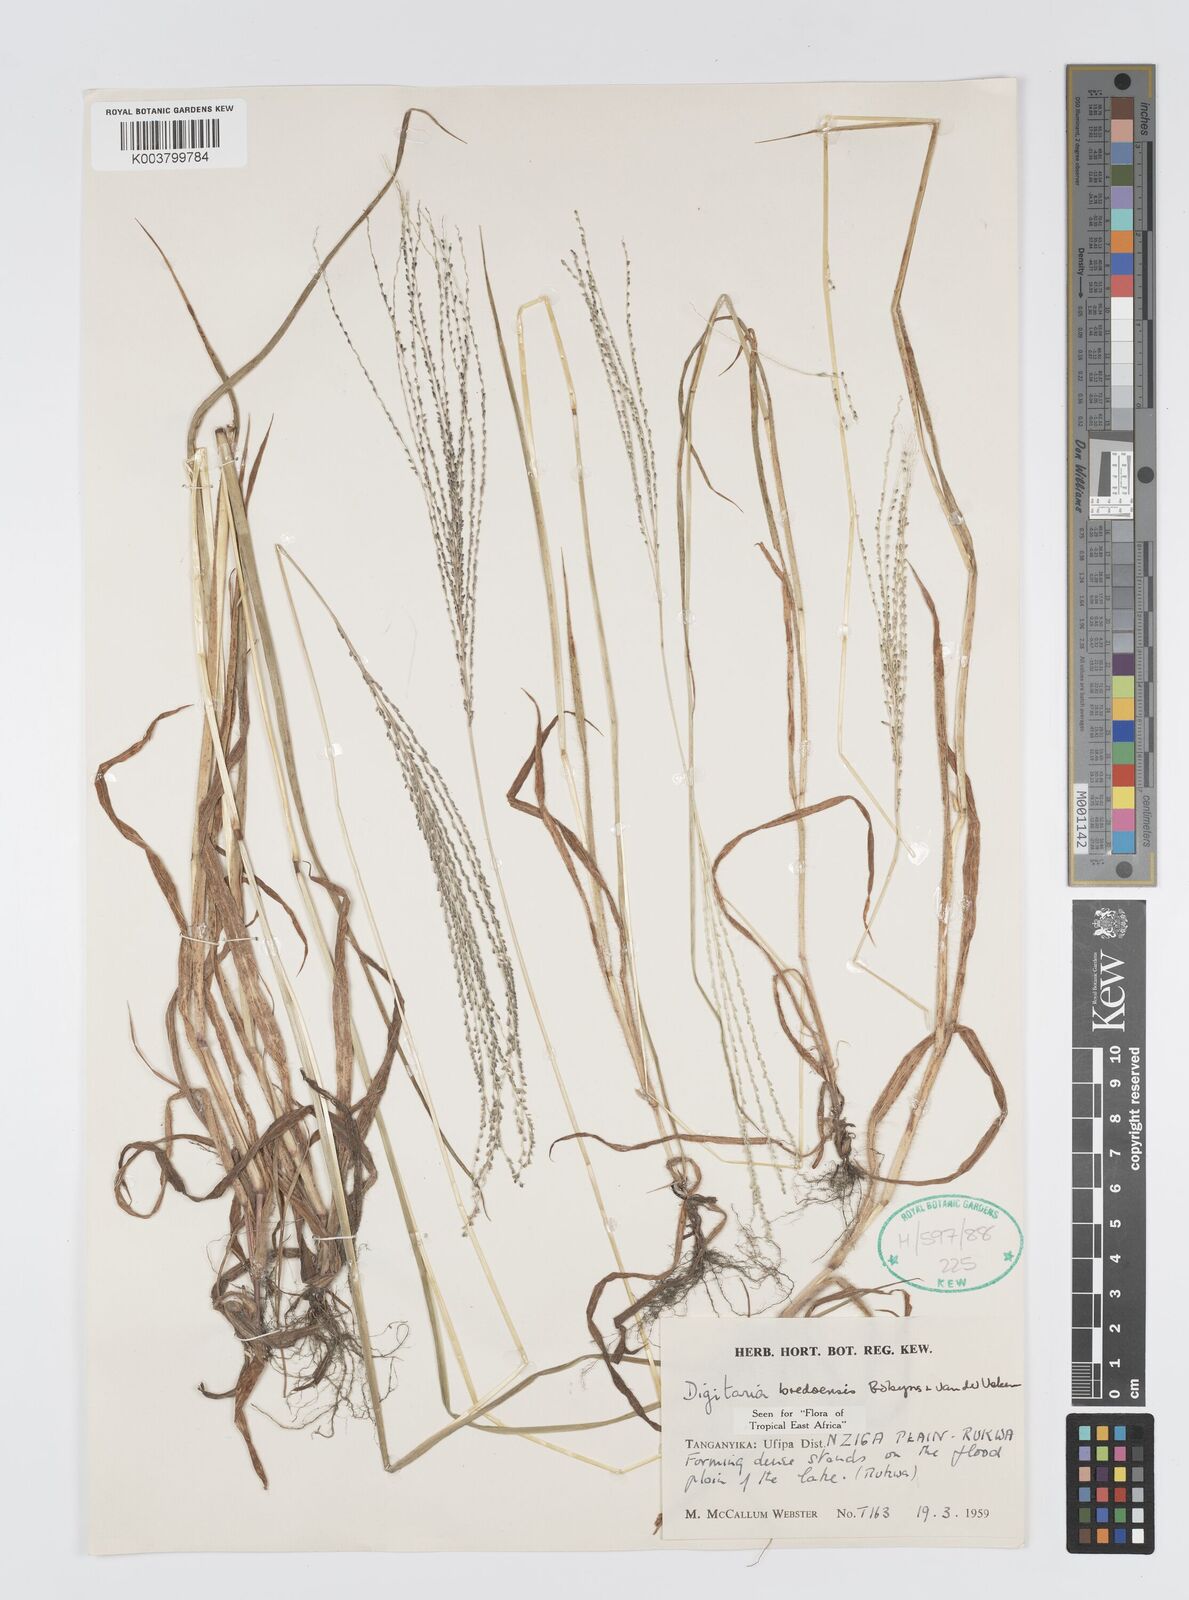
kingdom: Plantae
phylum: Tracheophyta
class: Liliopsida
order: Poales
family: Poaceae
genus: Digitaria
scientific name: Digitaria leptorhachis
